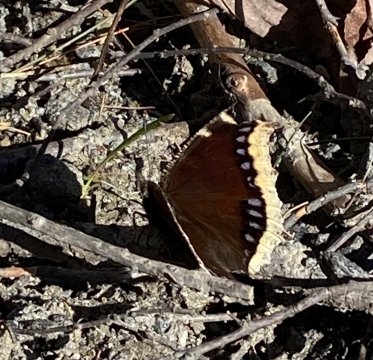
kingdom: Animalia
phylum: Arthropoda
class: Insecta
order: Lepidoptera
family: Nymphalidae
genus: Nymphalis
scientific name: Nymphalis antiopa
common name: Mourning Cloak
